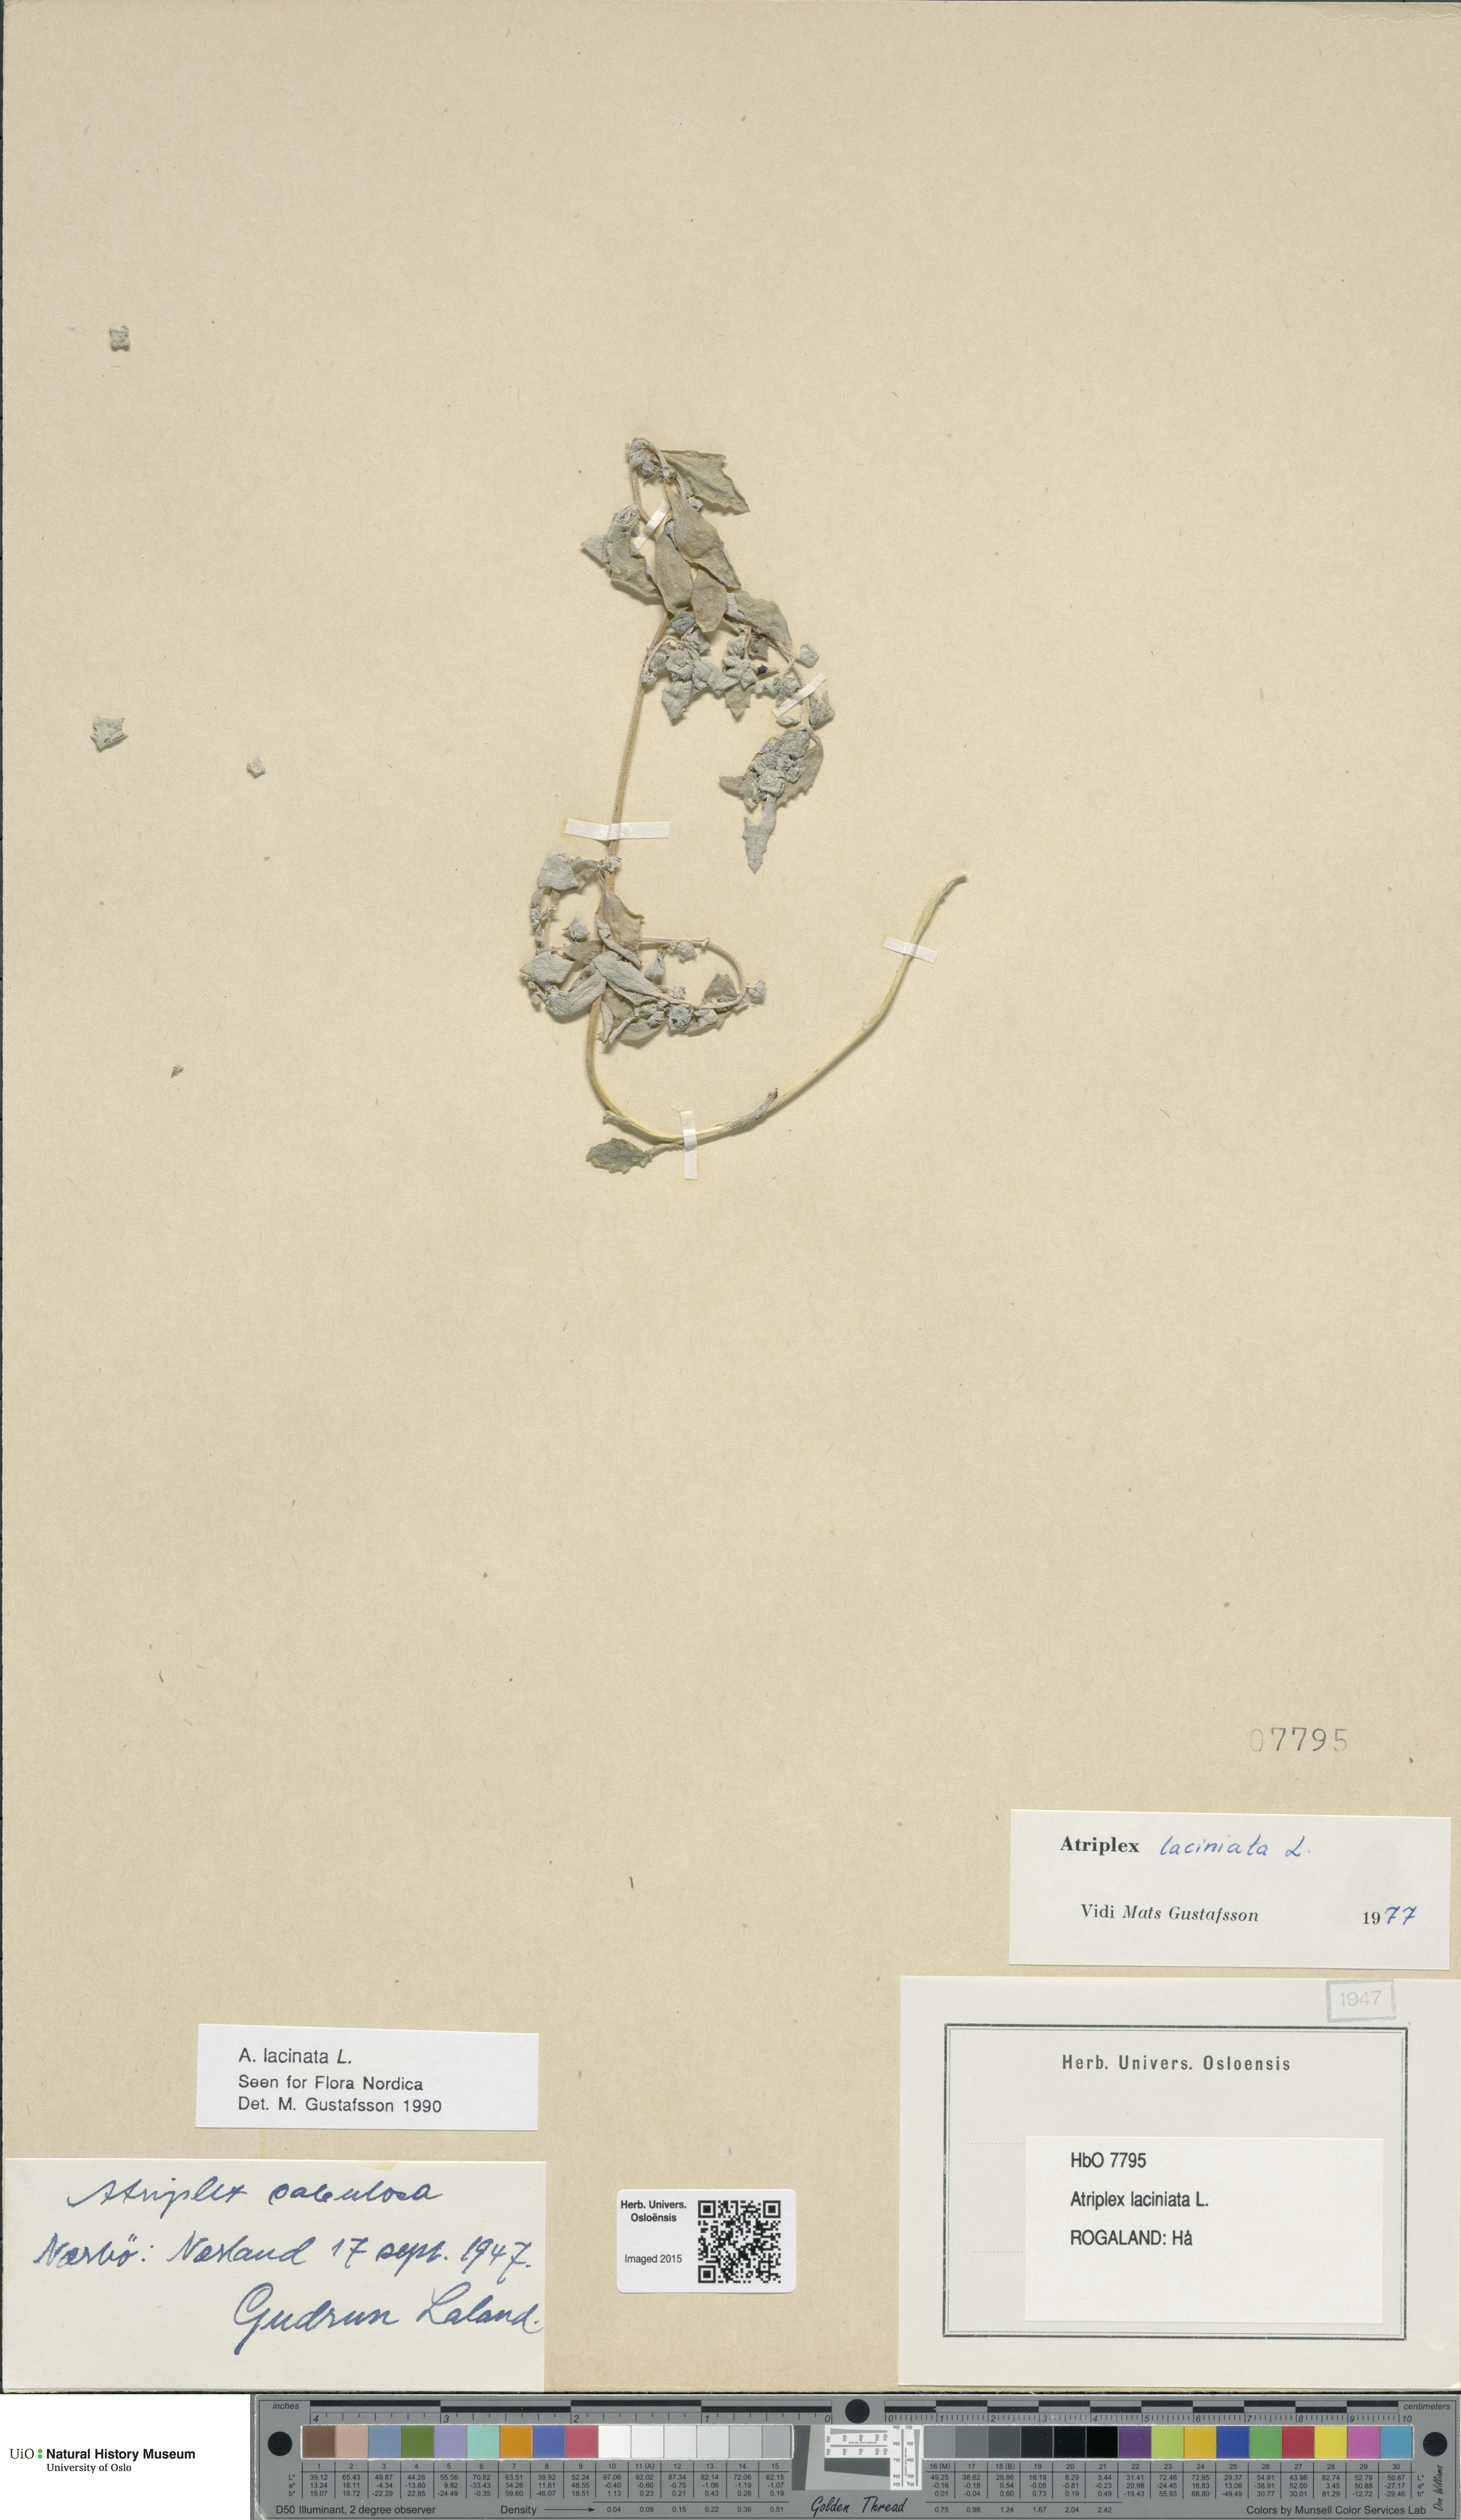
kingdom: Plantae
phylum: Tracheophyta
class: Magnoliopsida
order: Caryophyllales
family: Amaranthaceae
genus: Atriplex
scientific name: Atriplex laciniata
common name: Frosted orache
